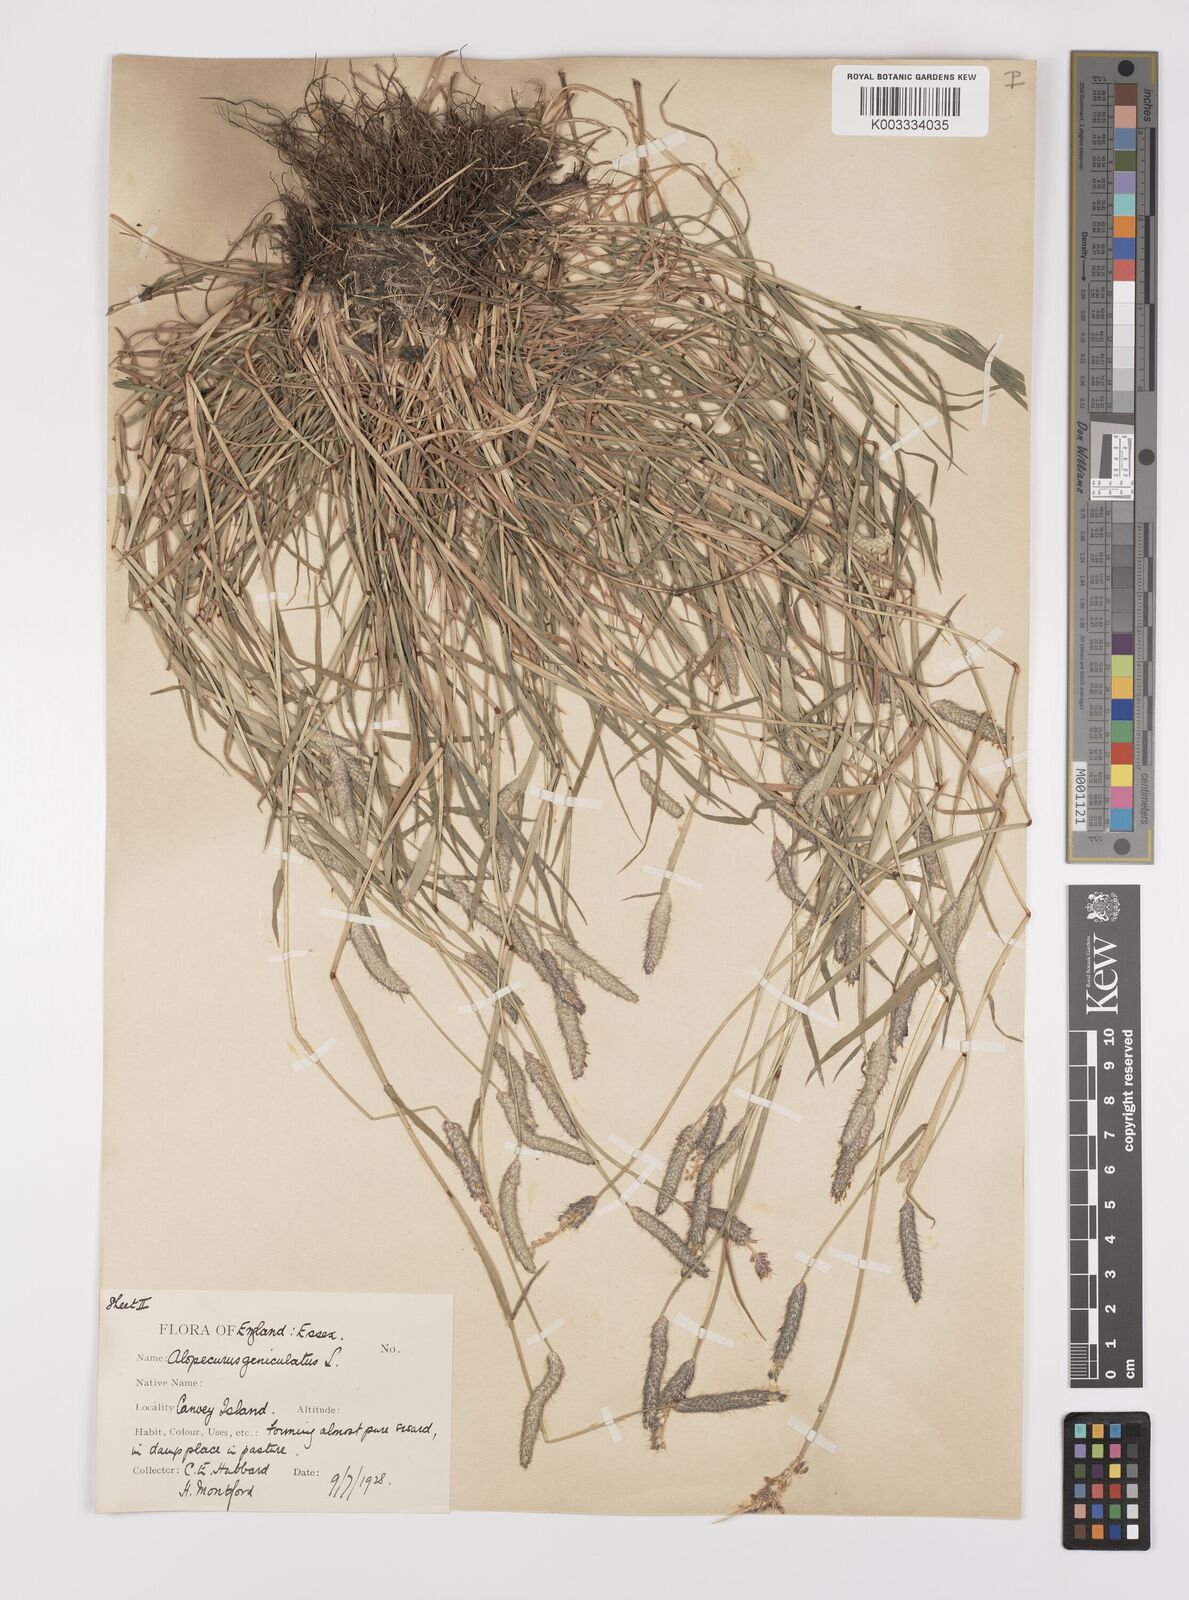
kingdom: Plantae
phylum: Tracheophyta
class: Liliopsida
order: Poales
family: Poaceae
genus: Alopecurus
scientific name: Alopecurus geniculatus
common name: Water foxtail
